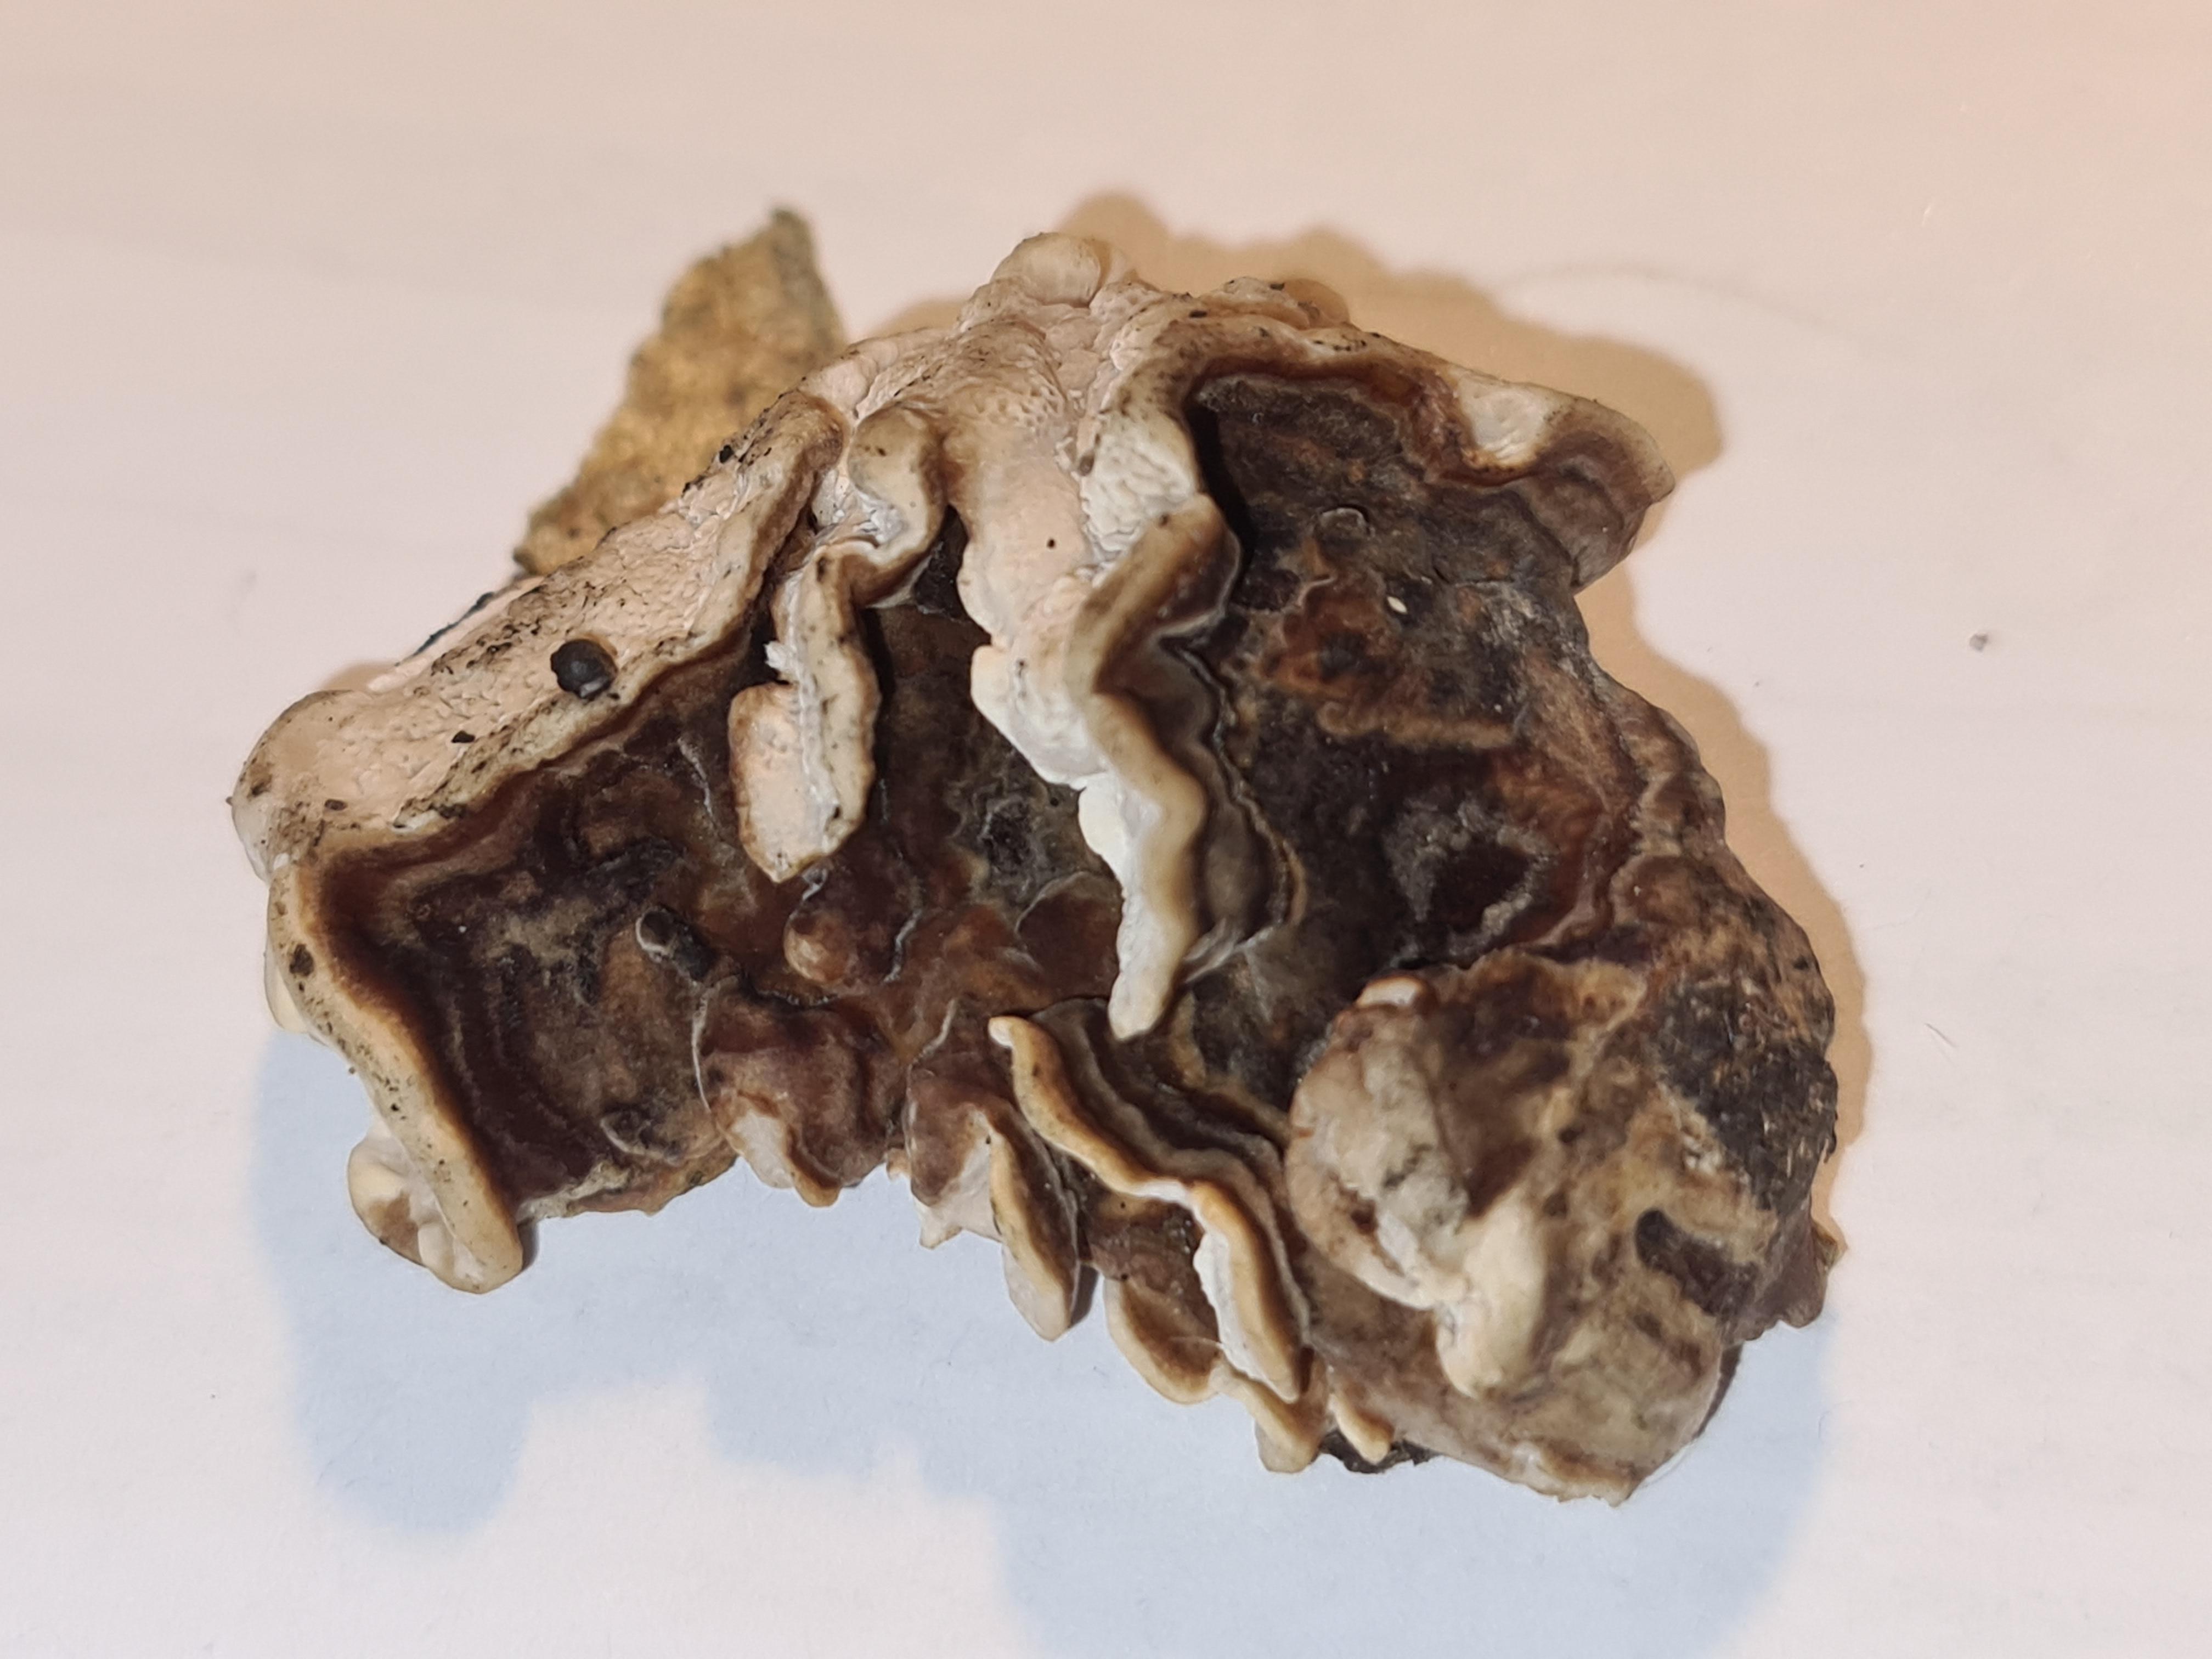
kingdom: Fungi
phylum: Basidiomycota
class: Agaricomycetes
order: Polyporales
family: Polyporaceae
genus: Trametes
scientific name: Trametes versicolor
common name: broget læderporesvamp
